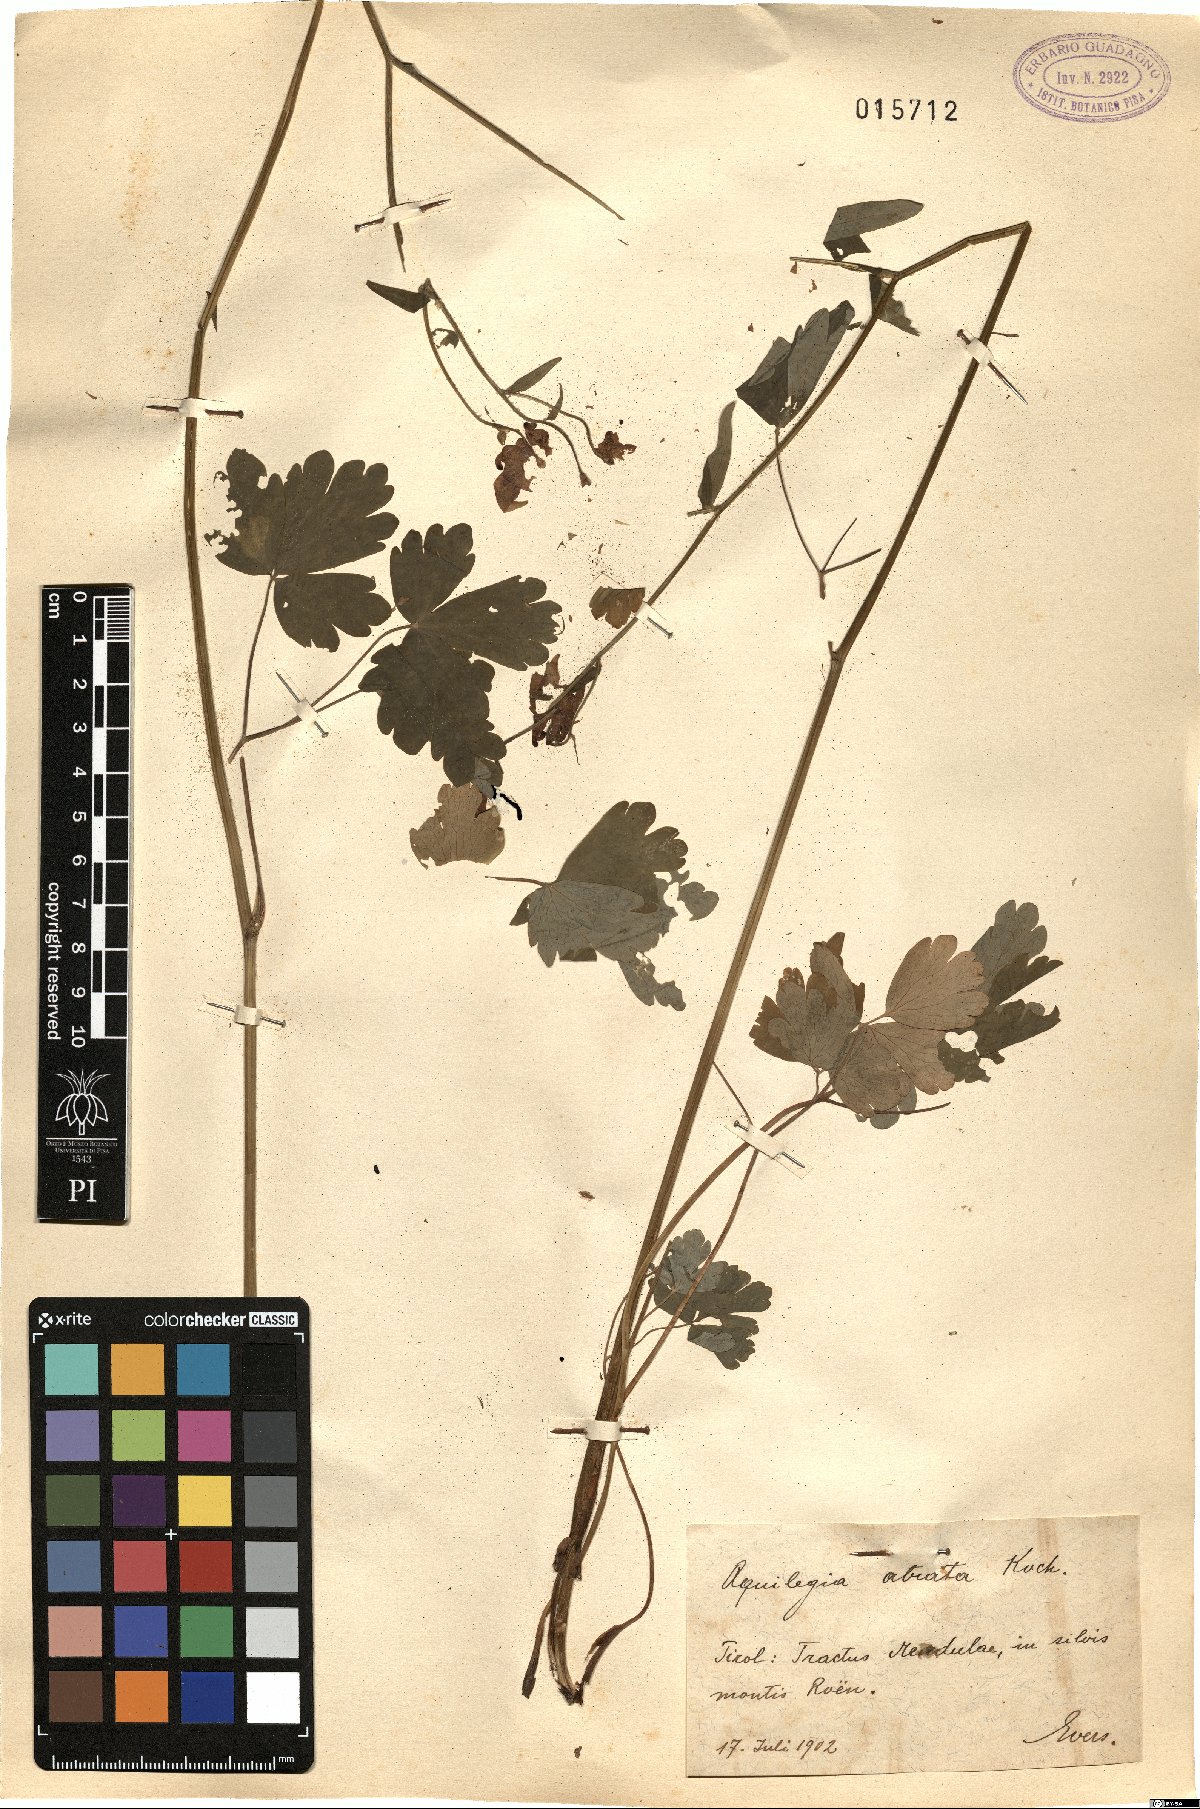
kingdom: Plantae
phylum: Tracheophyta
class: Magnoliopsida
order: Ranunculales
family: Ranunculaceae
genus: Aquilegia
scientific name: Aquilegia atrata
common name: Dark columbine
